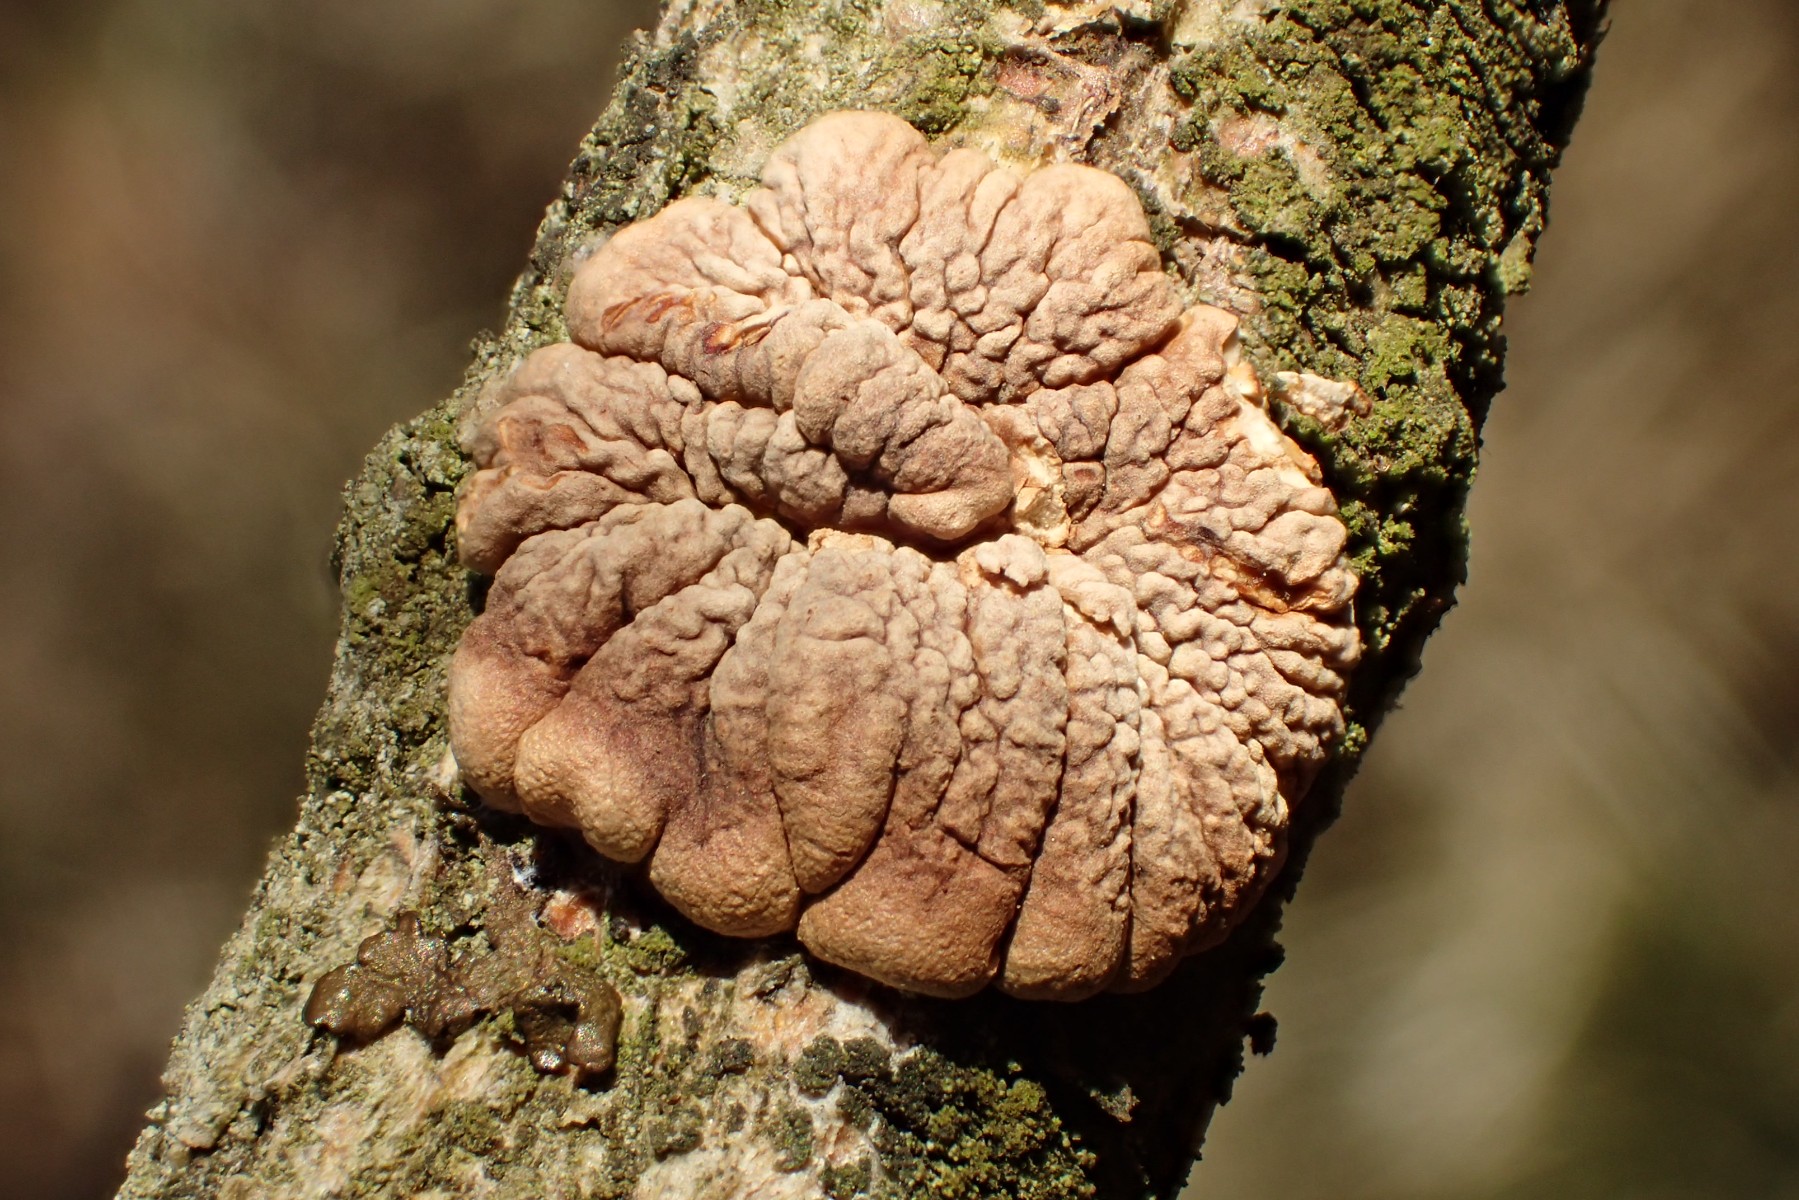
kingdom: Fungi
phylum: Ascomycota
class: Sordariomycetes
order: Hypocreales
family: Hypocreaceae
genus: Hypocreopsis
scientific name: Hypocreopsis lichenoides
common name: pilfinger
